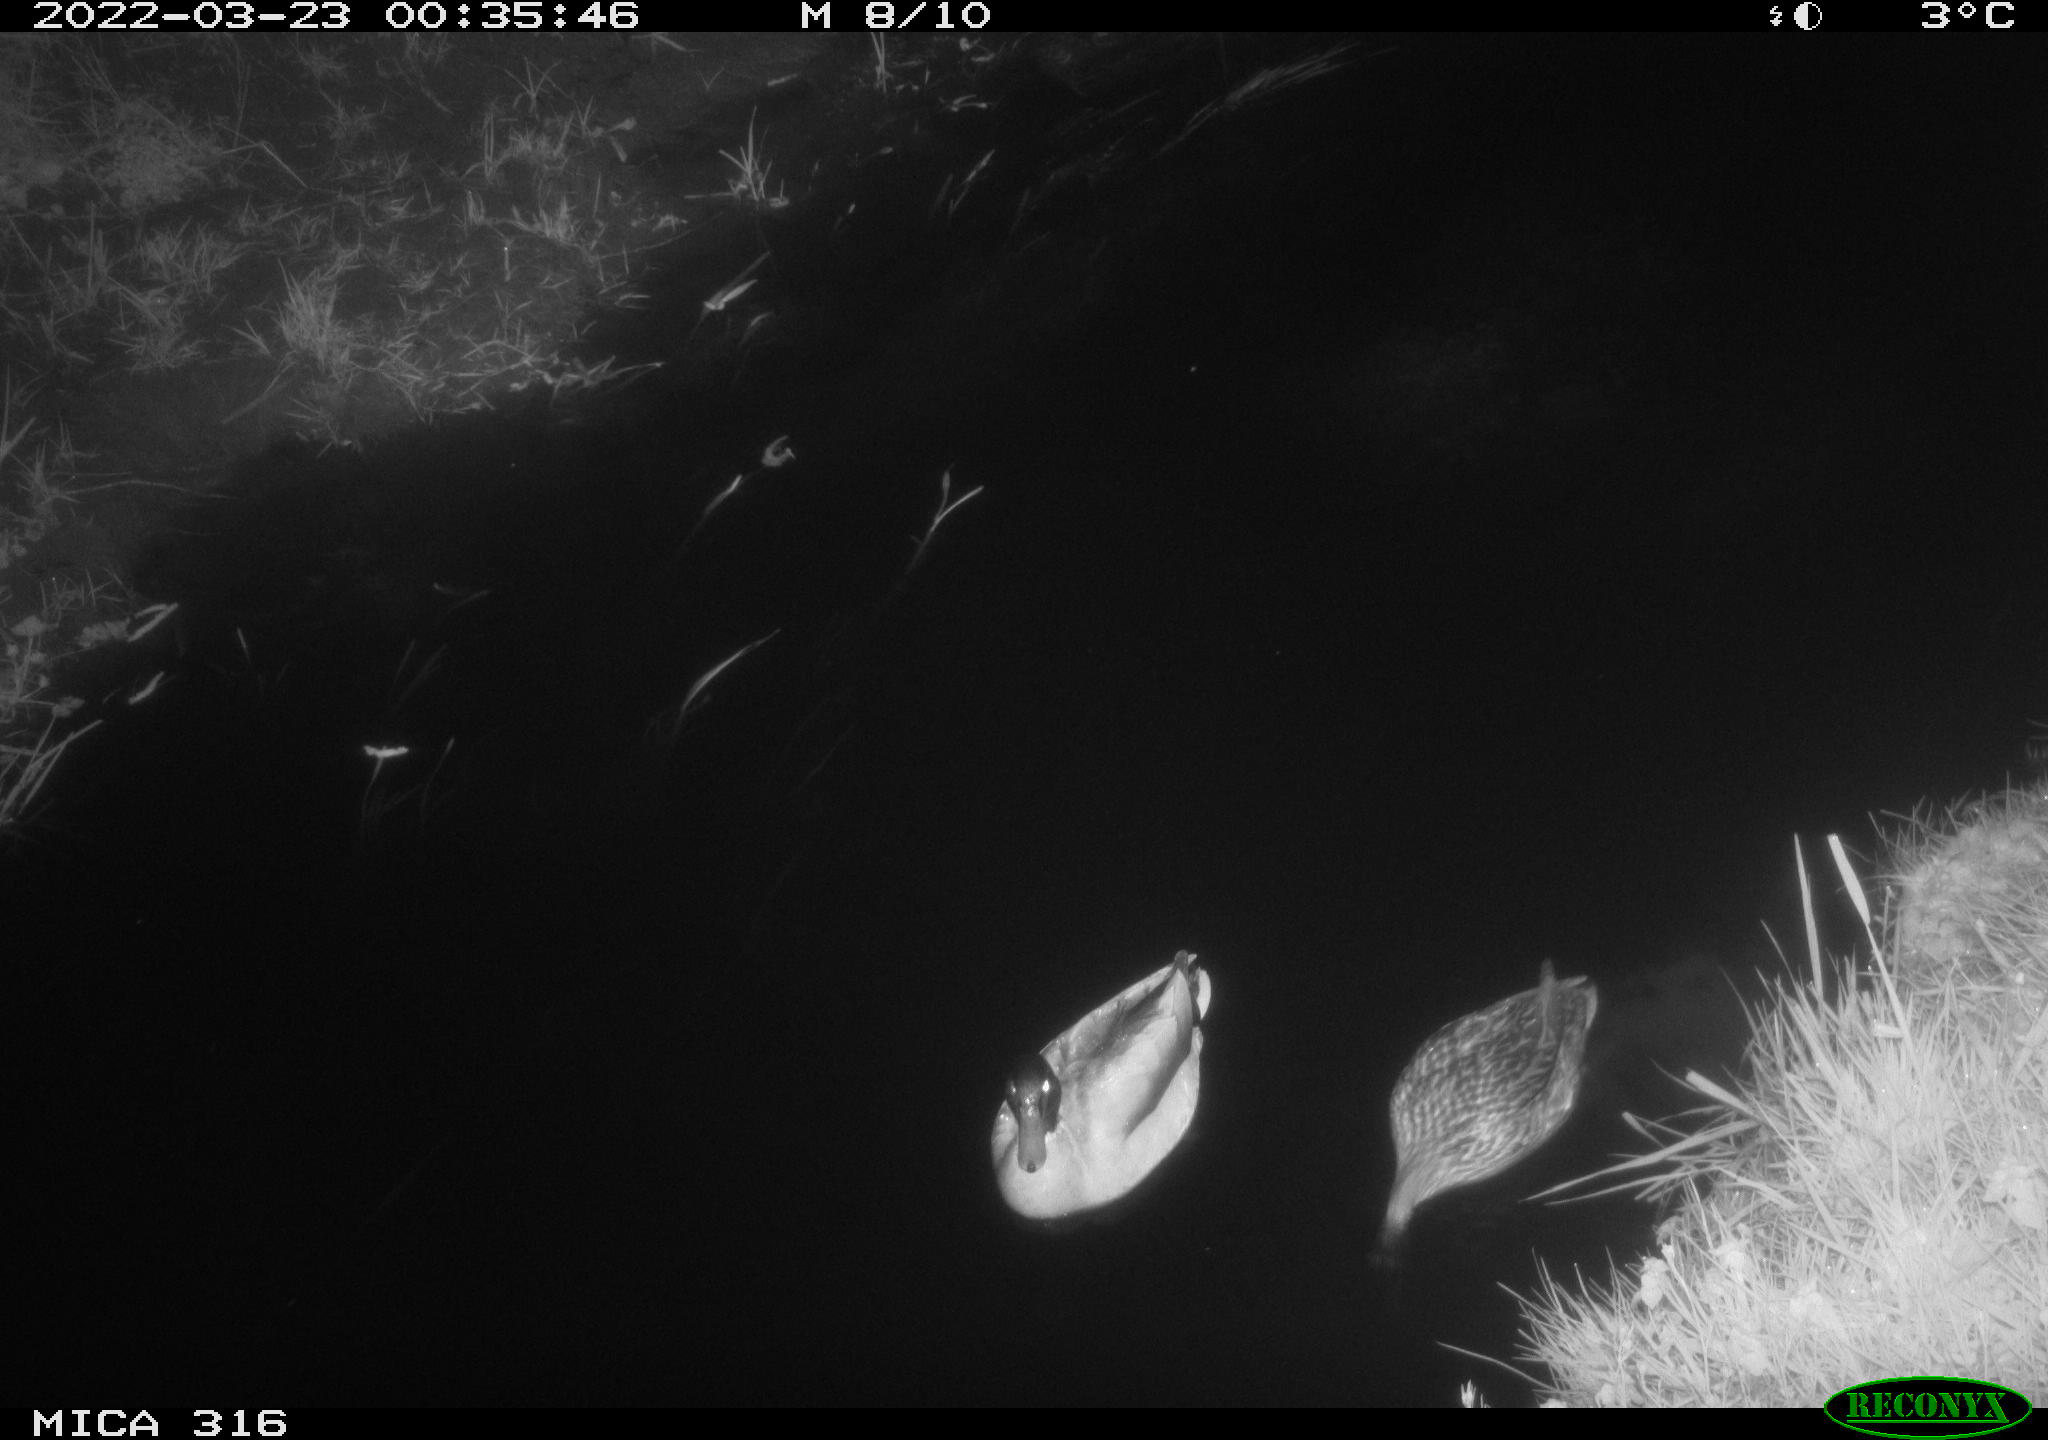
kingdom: Animalia
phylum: Chordata
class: Aves
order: Anseriformes
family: Anatidae
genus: Anas
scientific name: Anas platyrhynchos
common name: Mallard
